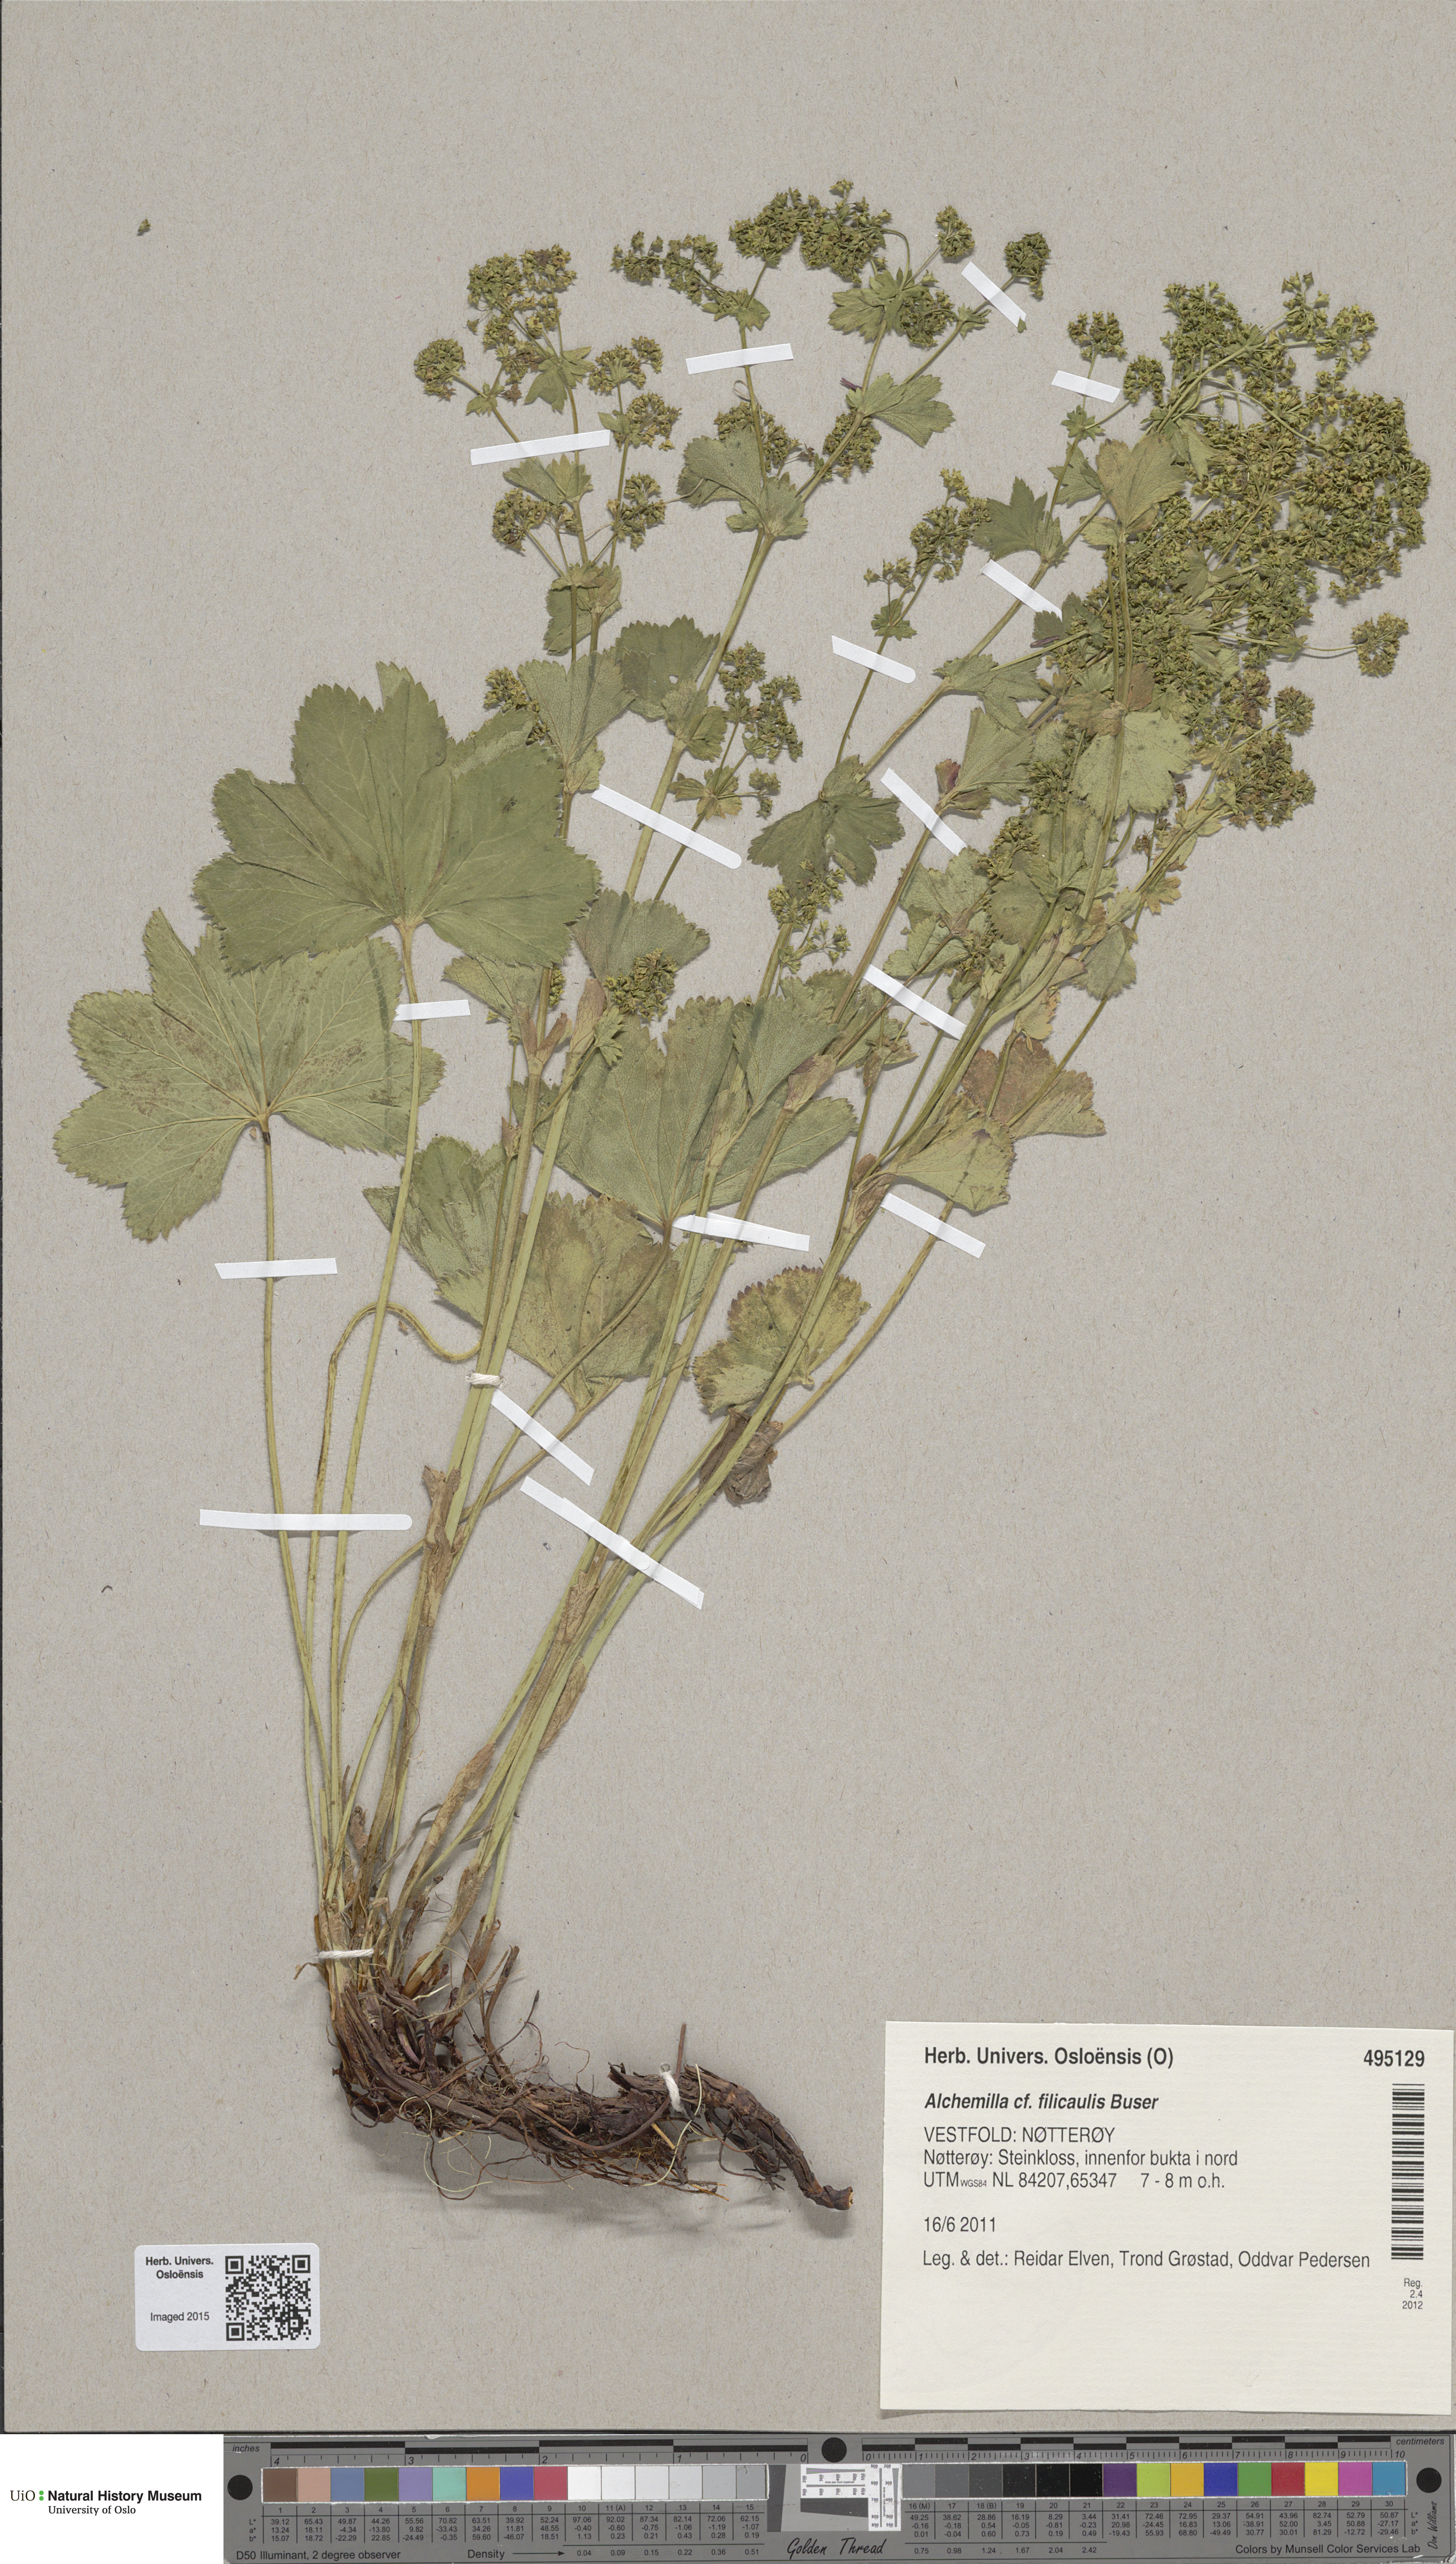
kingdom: Plantae
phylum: Tracheophyta
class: Magnoliopsida
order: Rosales
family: Rosaceae
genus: Alchemilla
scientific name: Alchemilla filicaulis
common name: Hairy lady's-mantle
